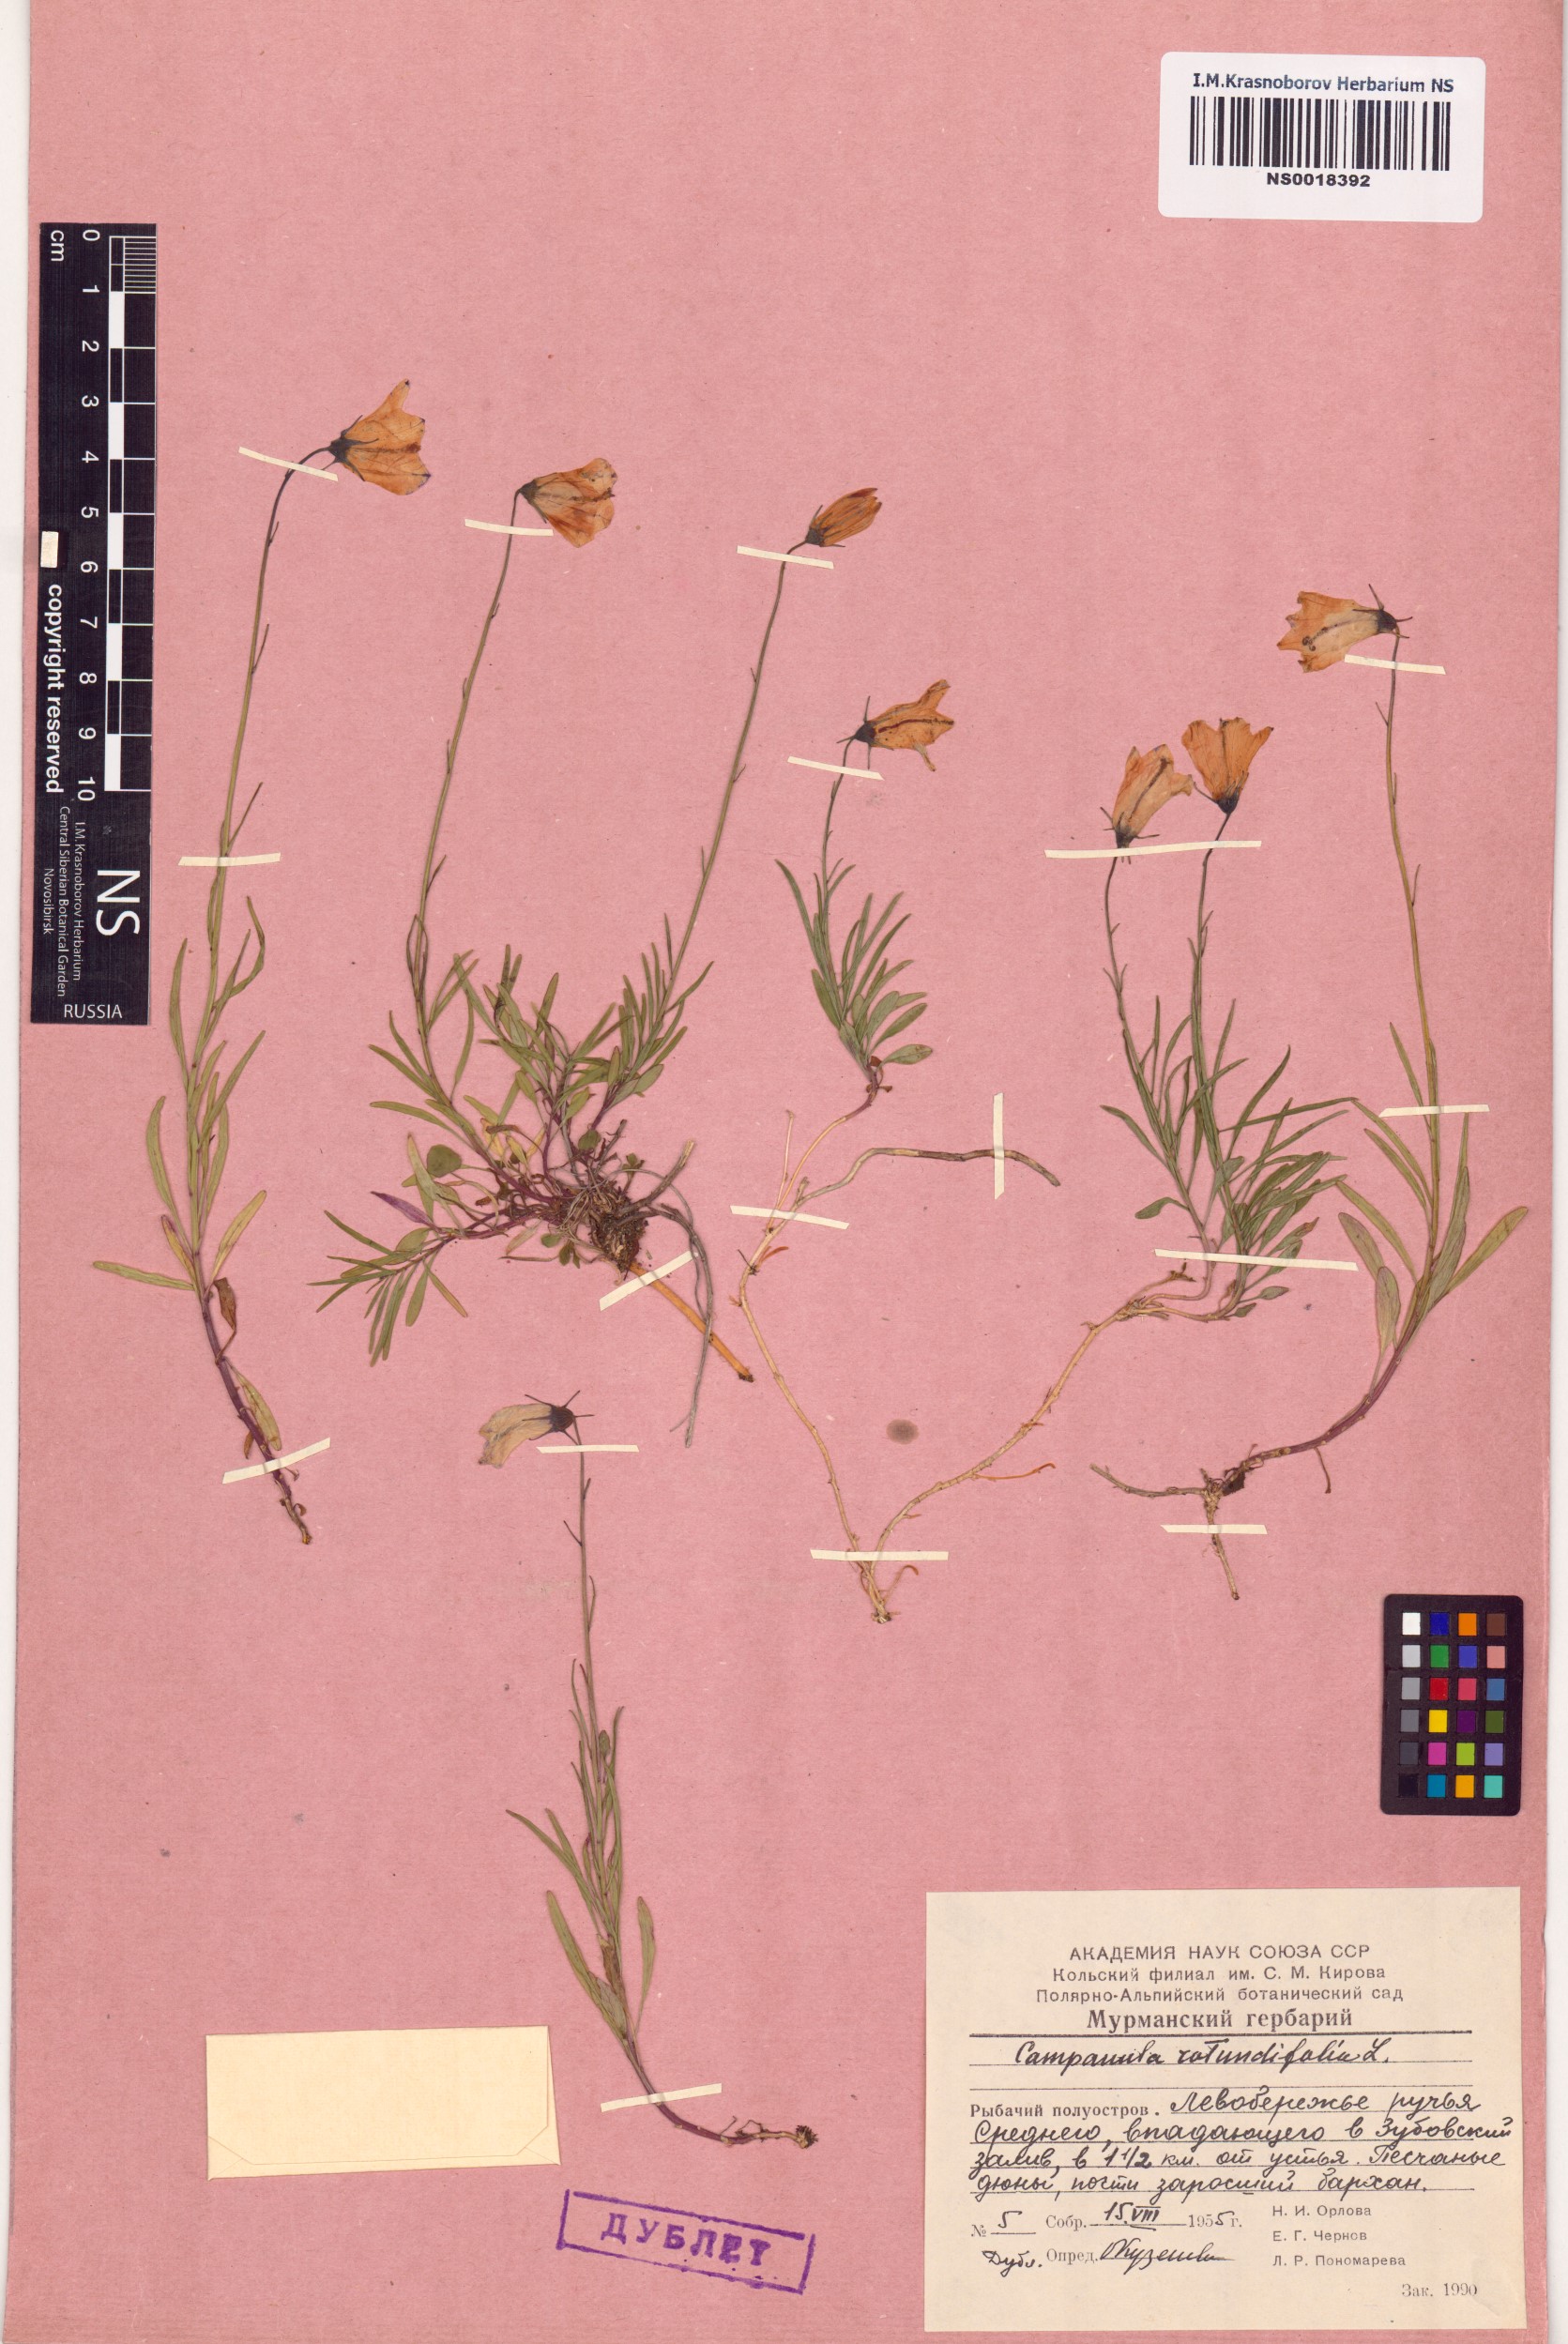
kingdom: Plantae
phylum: Tracheophyta
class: Magnoliopsida
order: Asterales
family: Campanulaceae
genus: Campanula
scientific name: Campanula rotundifolia
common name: Harebell
